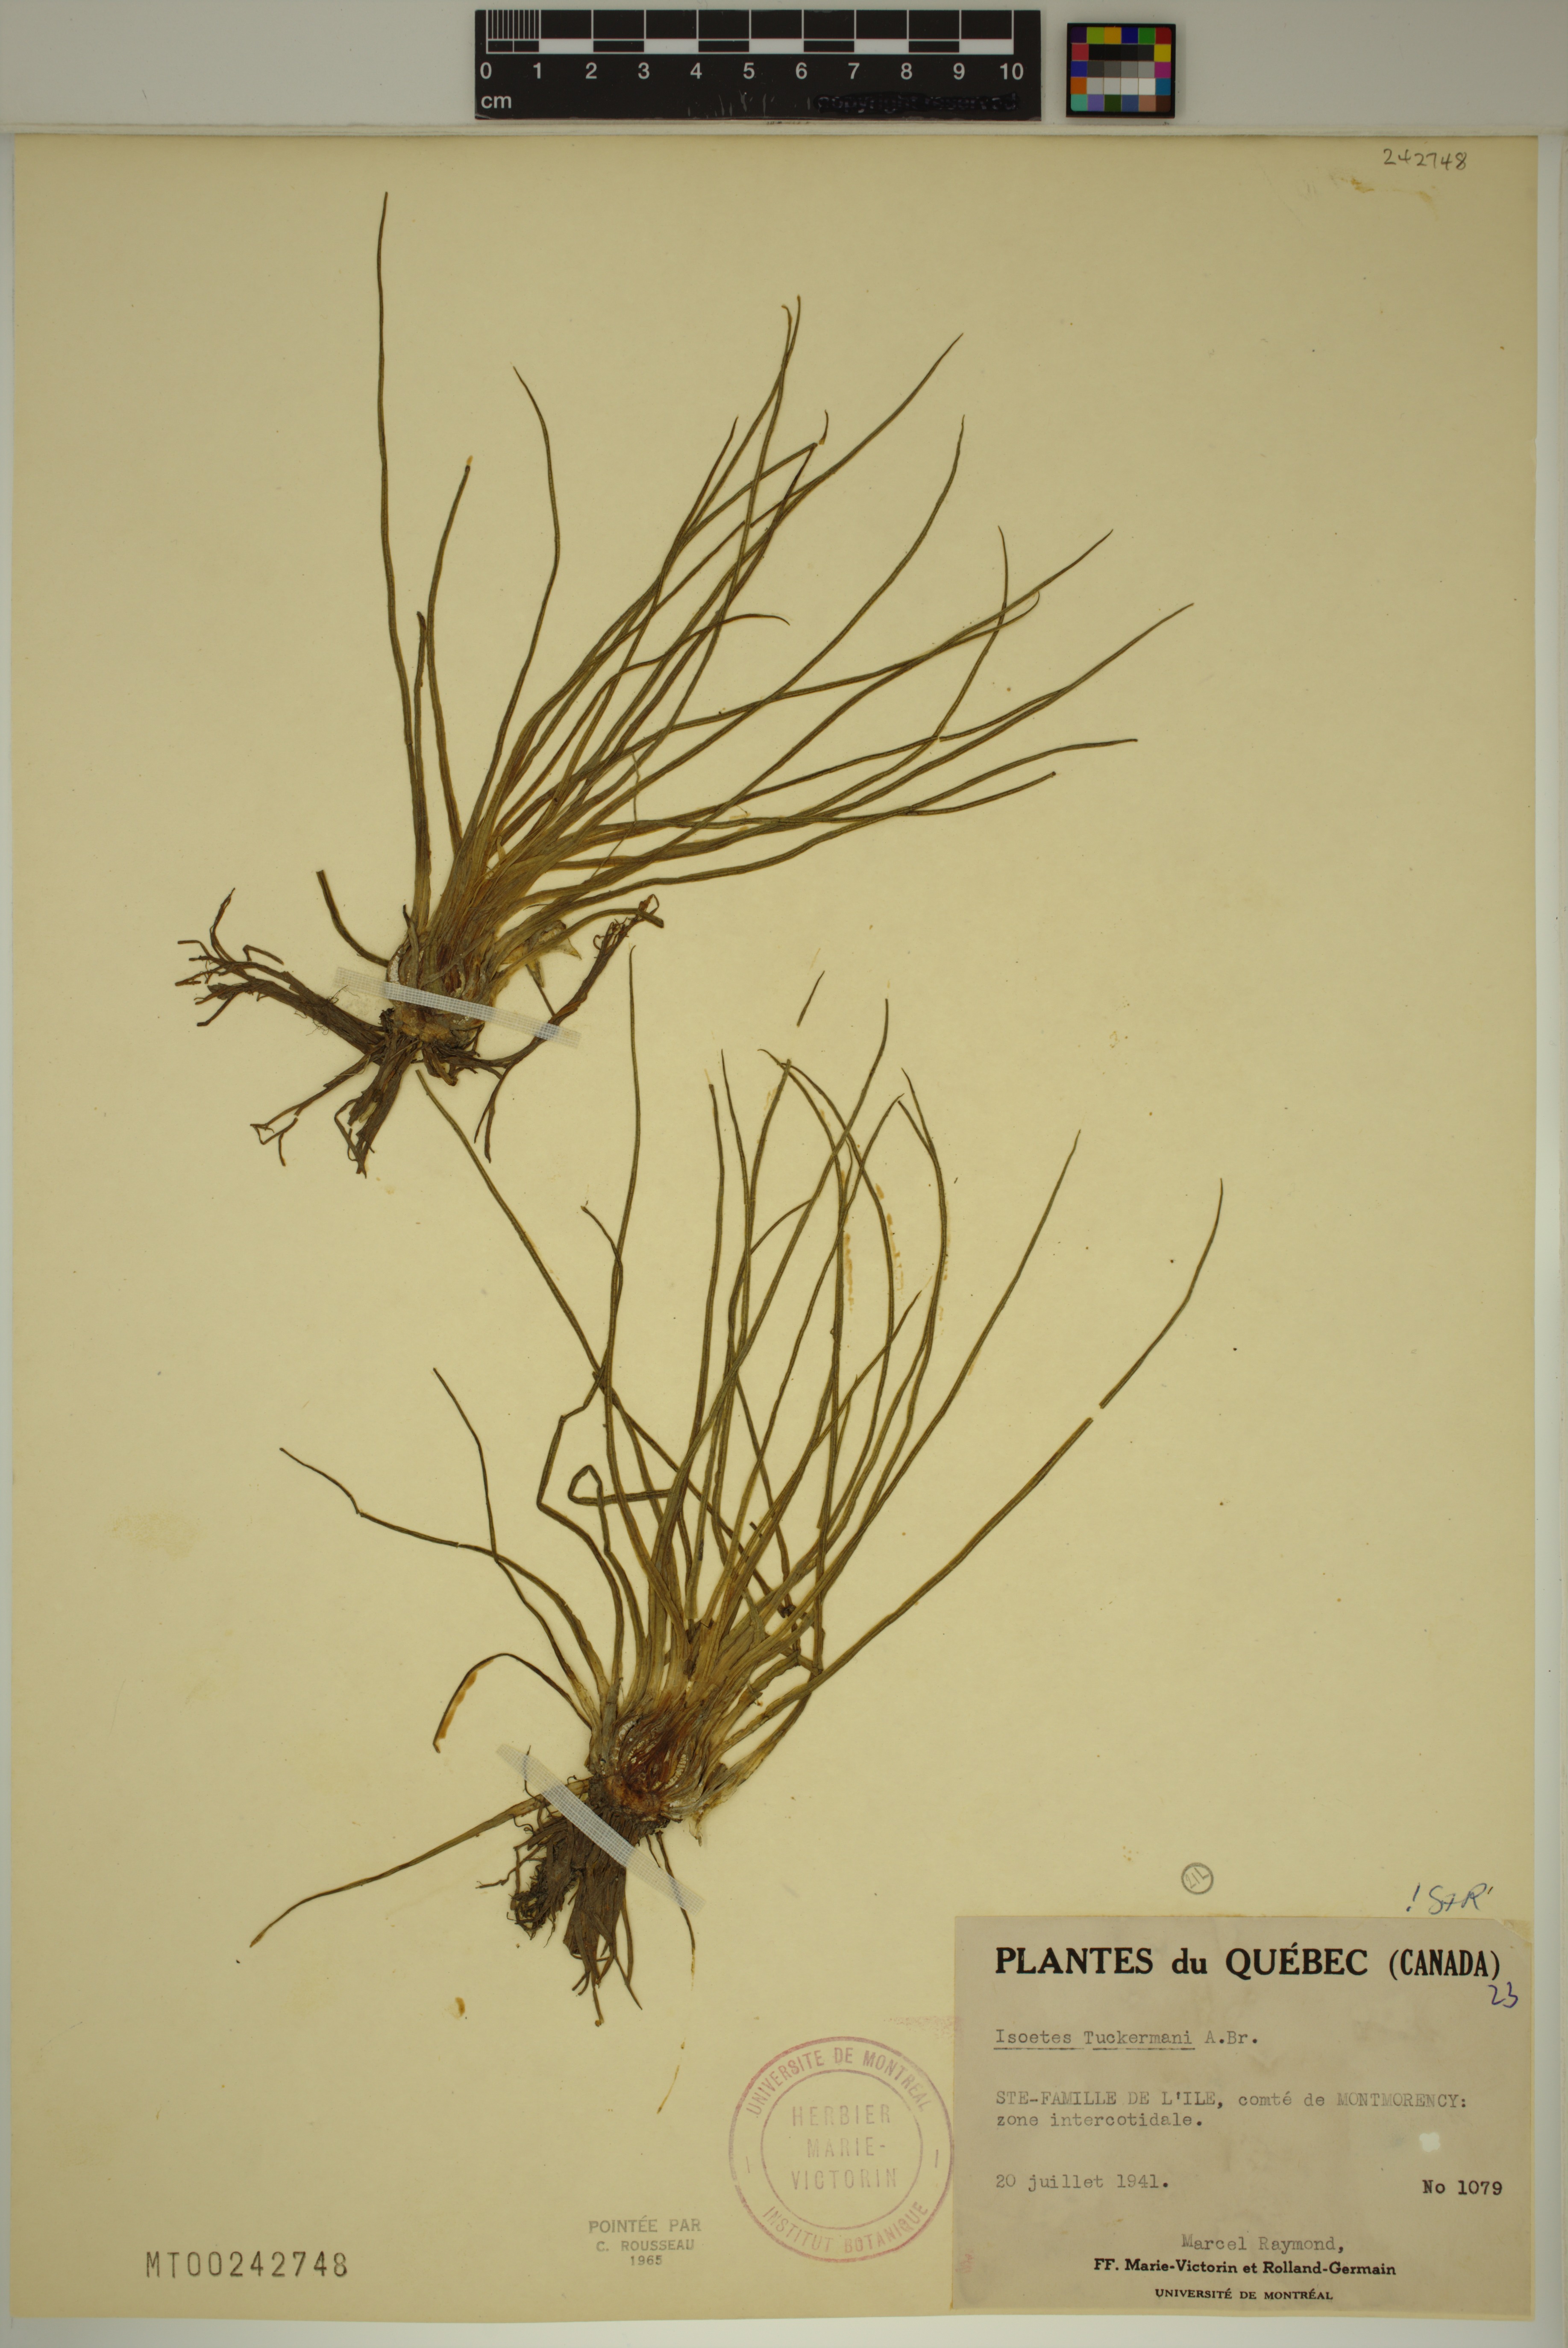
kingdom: Plantae
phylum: Tracheophyta
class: Lycopodiopsida
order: Isoetales
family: Isoetaceae
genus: Isoetes
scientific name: Isoetes laurentiana
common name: St. lawrence quillwort
